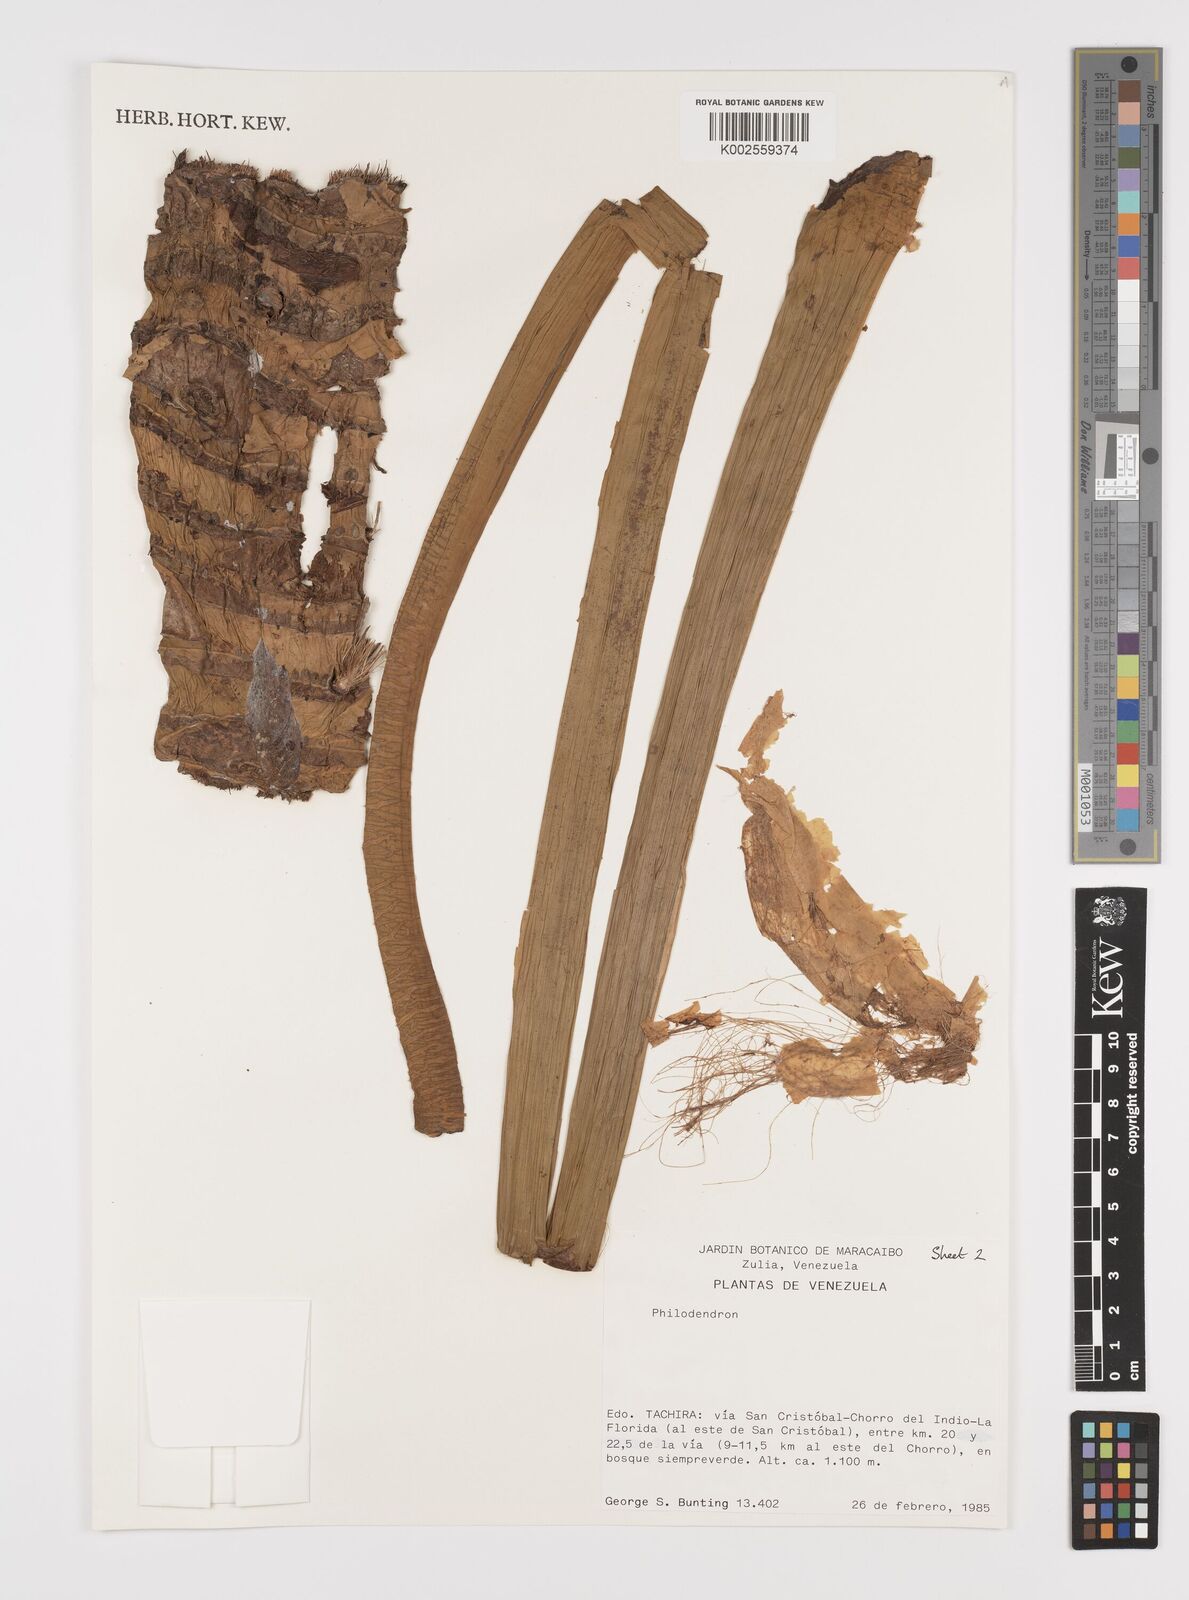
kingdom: Plantae
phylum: Tracheophyta
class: Liliopsida
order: Alismatales
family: Araceae
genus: Philodendron
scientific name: Philodendron strictum
